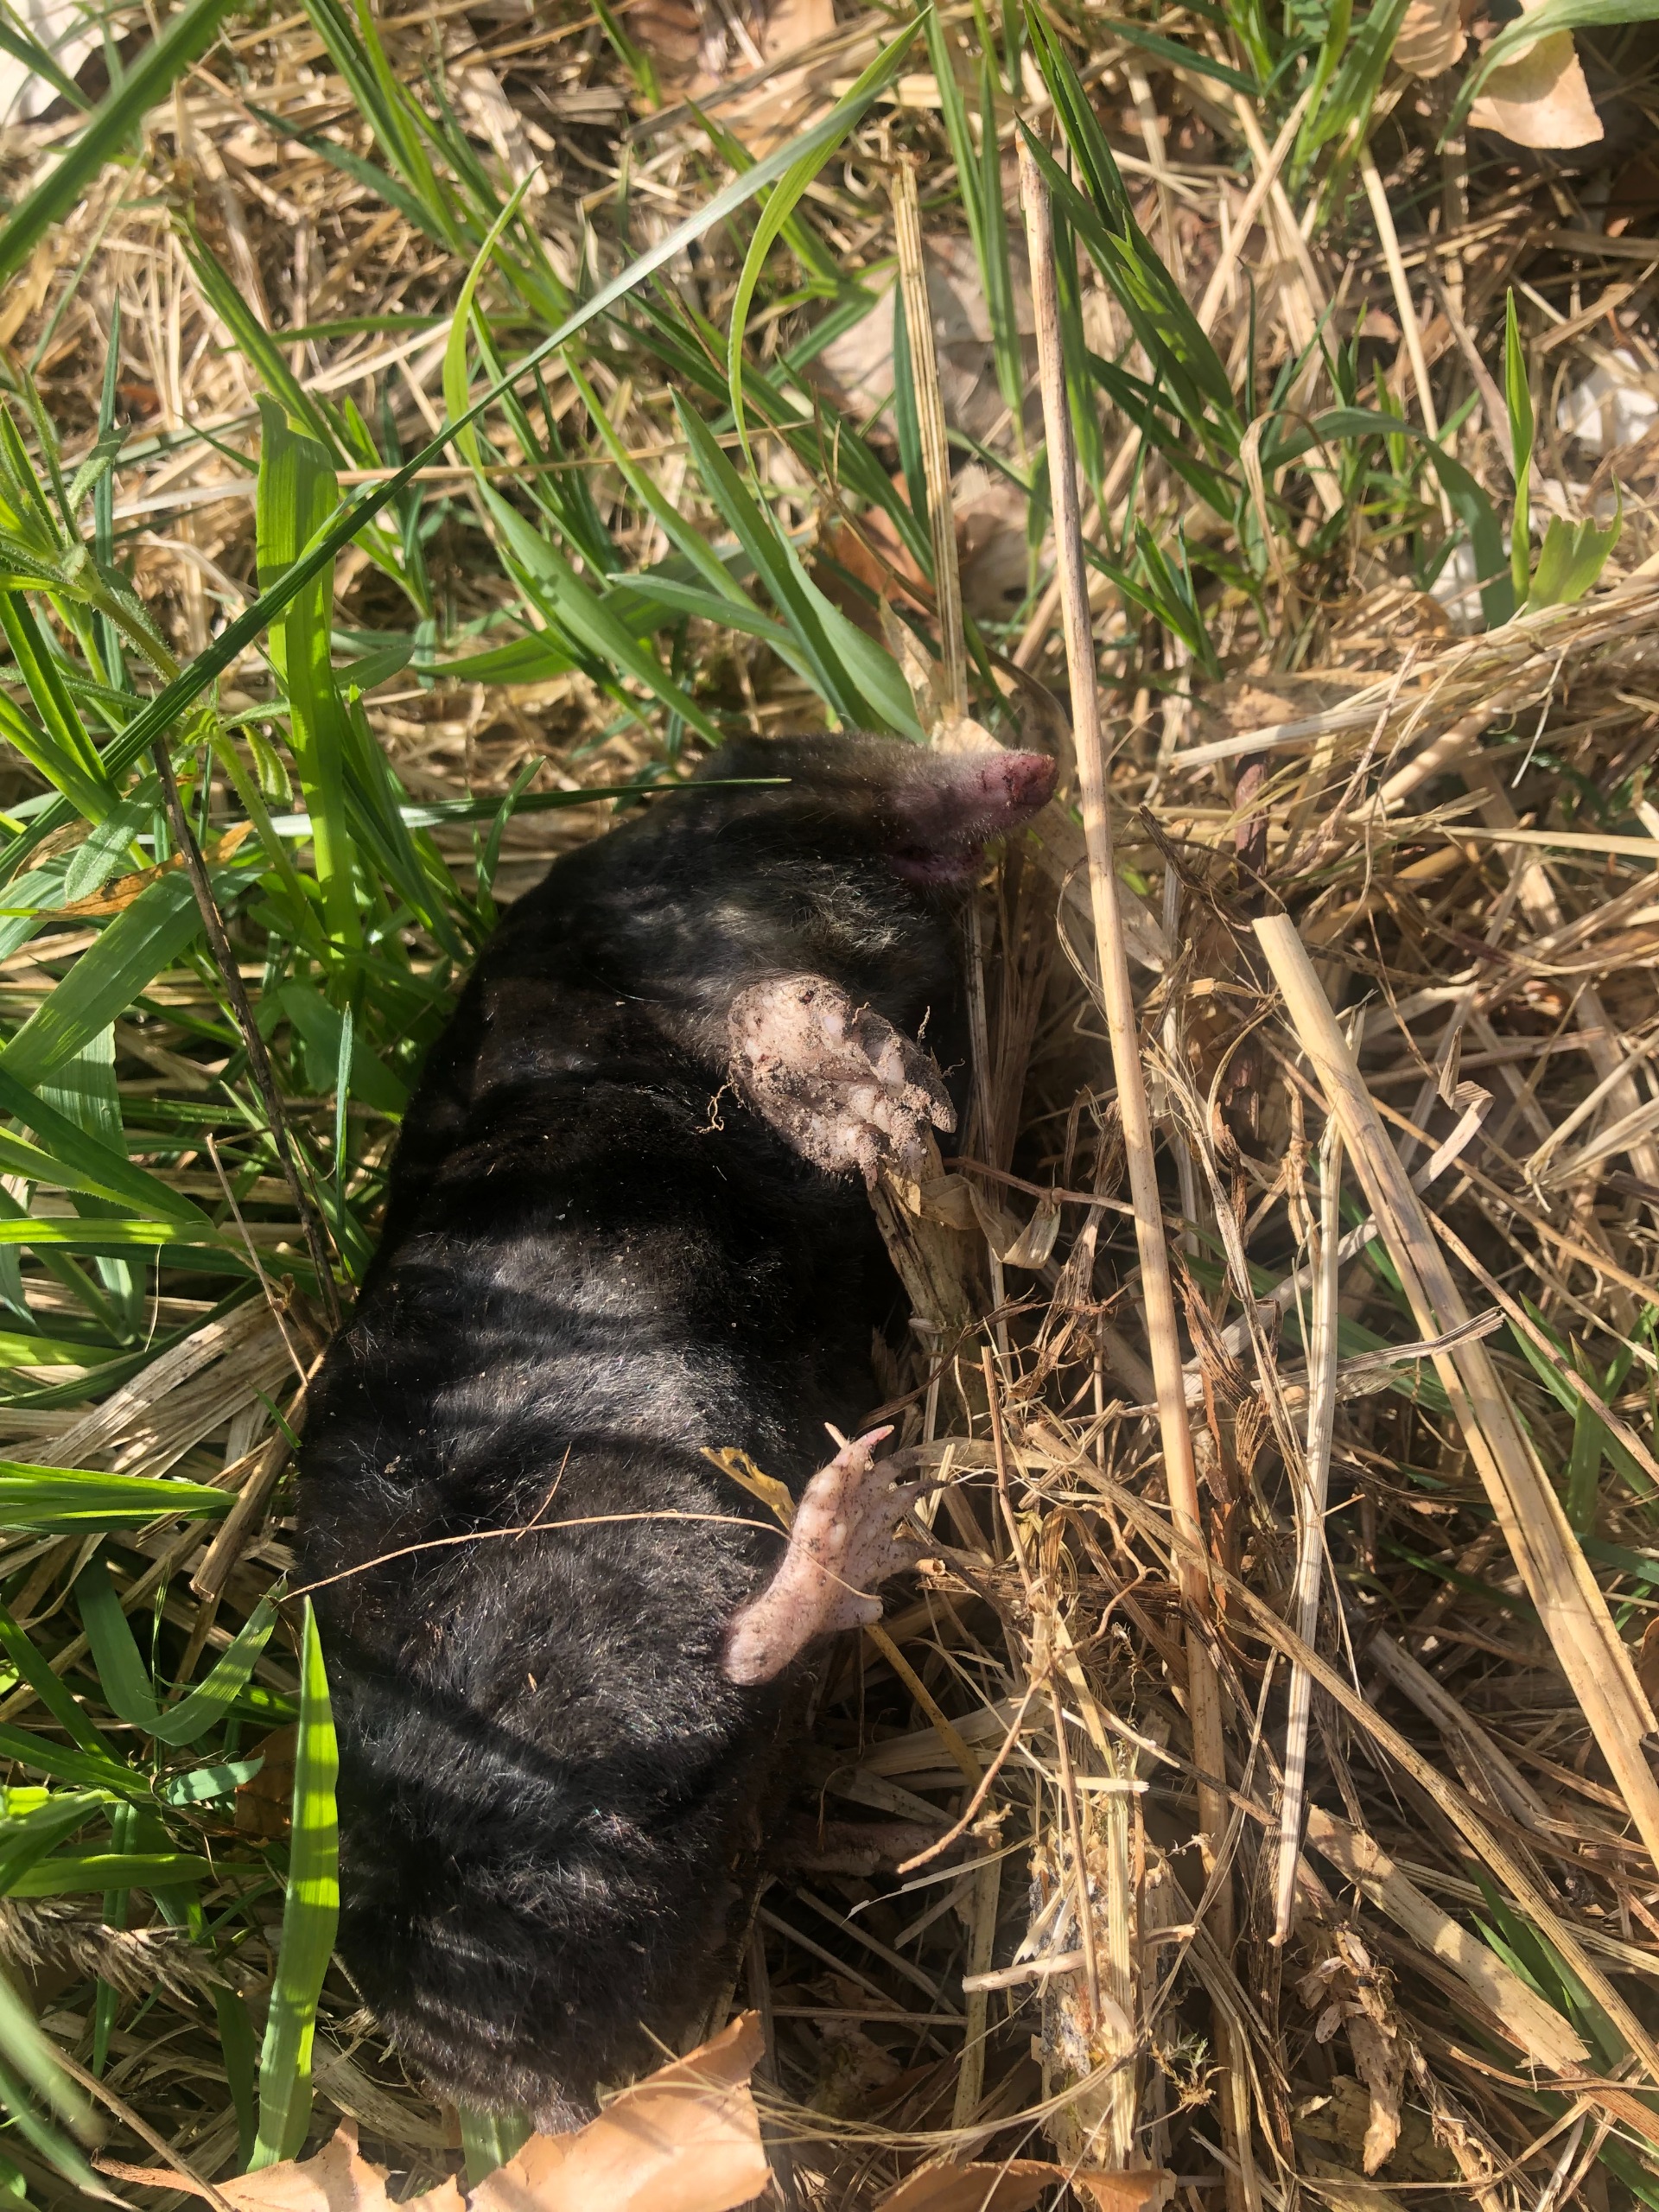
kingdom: Animalia
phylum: Chordata
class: Mammalia
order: Soricomorpha
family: Talpidae
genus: Talpa
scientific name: Talpa europaea
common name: Muldvarp
